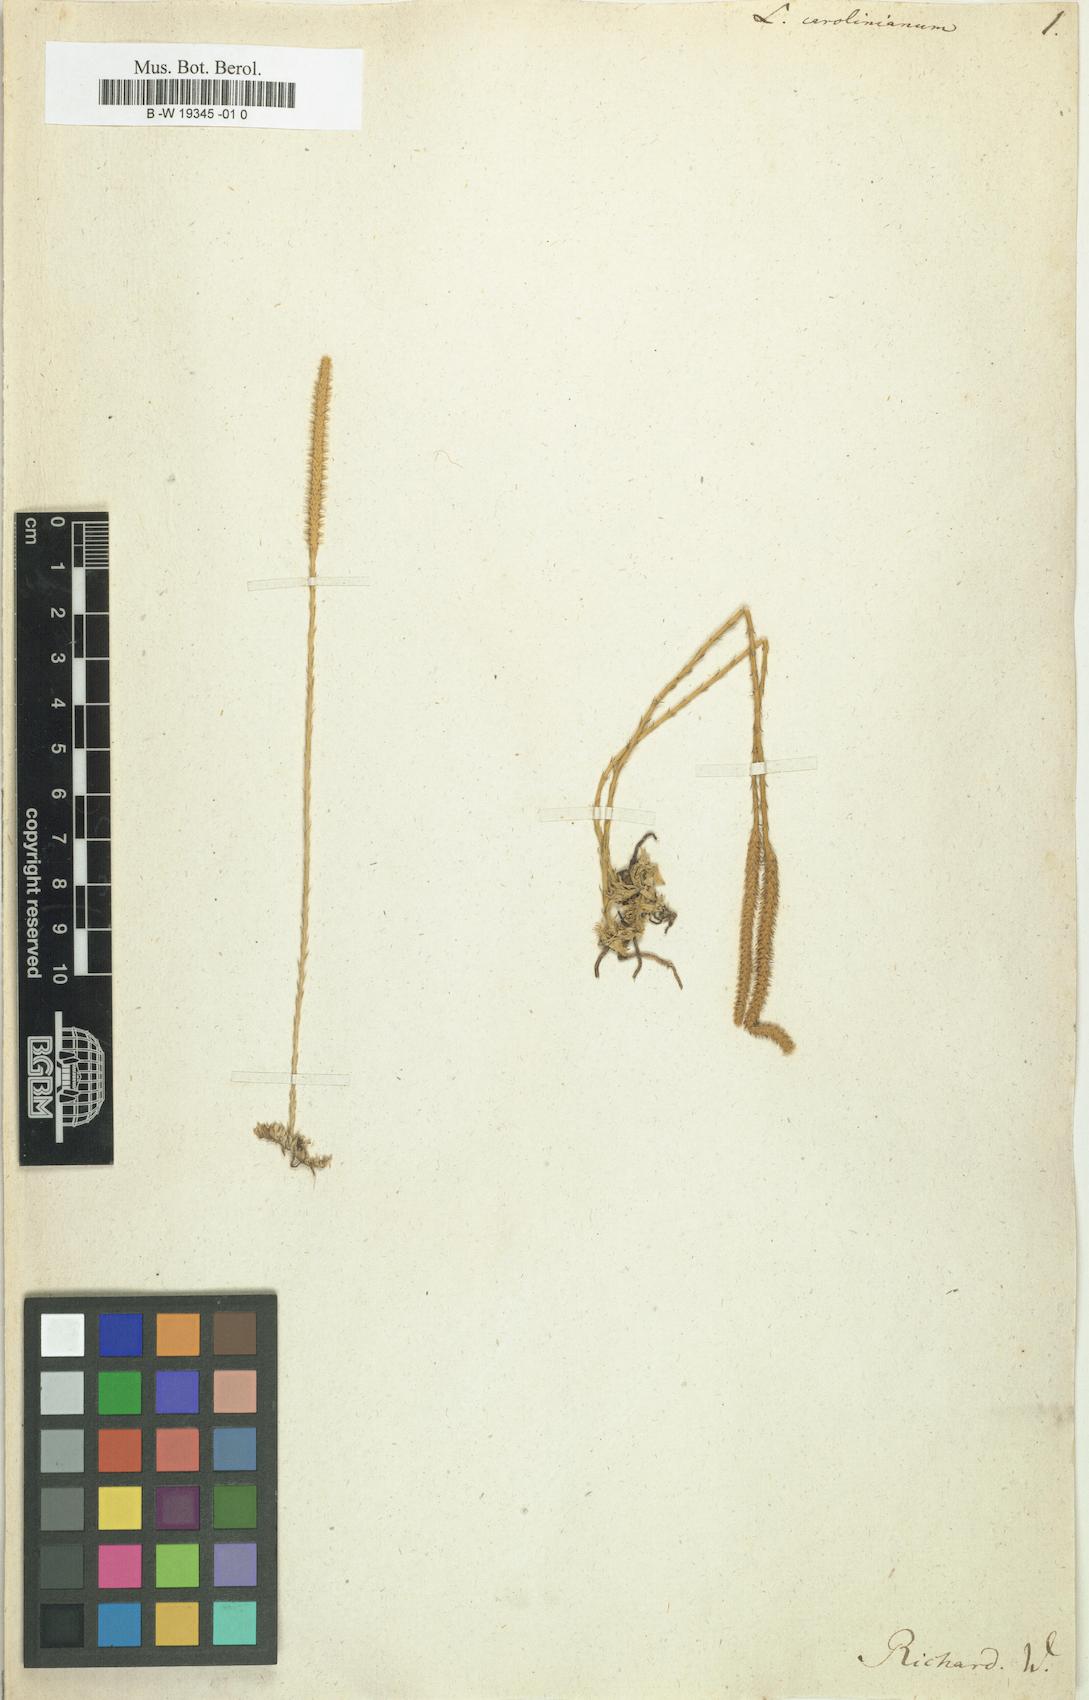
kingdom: Plantae
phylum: Tracheophyta
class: Lycopodiopsida
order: Lycopodiales
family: Lycopodiaceae
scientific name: Lycopodiaceae
